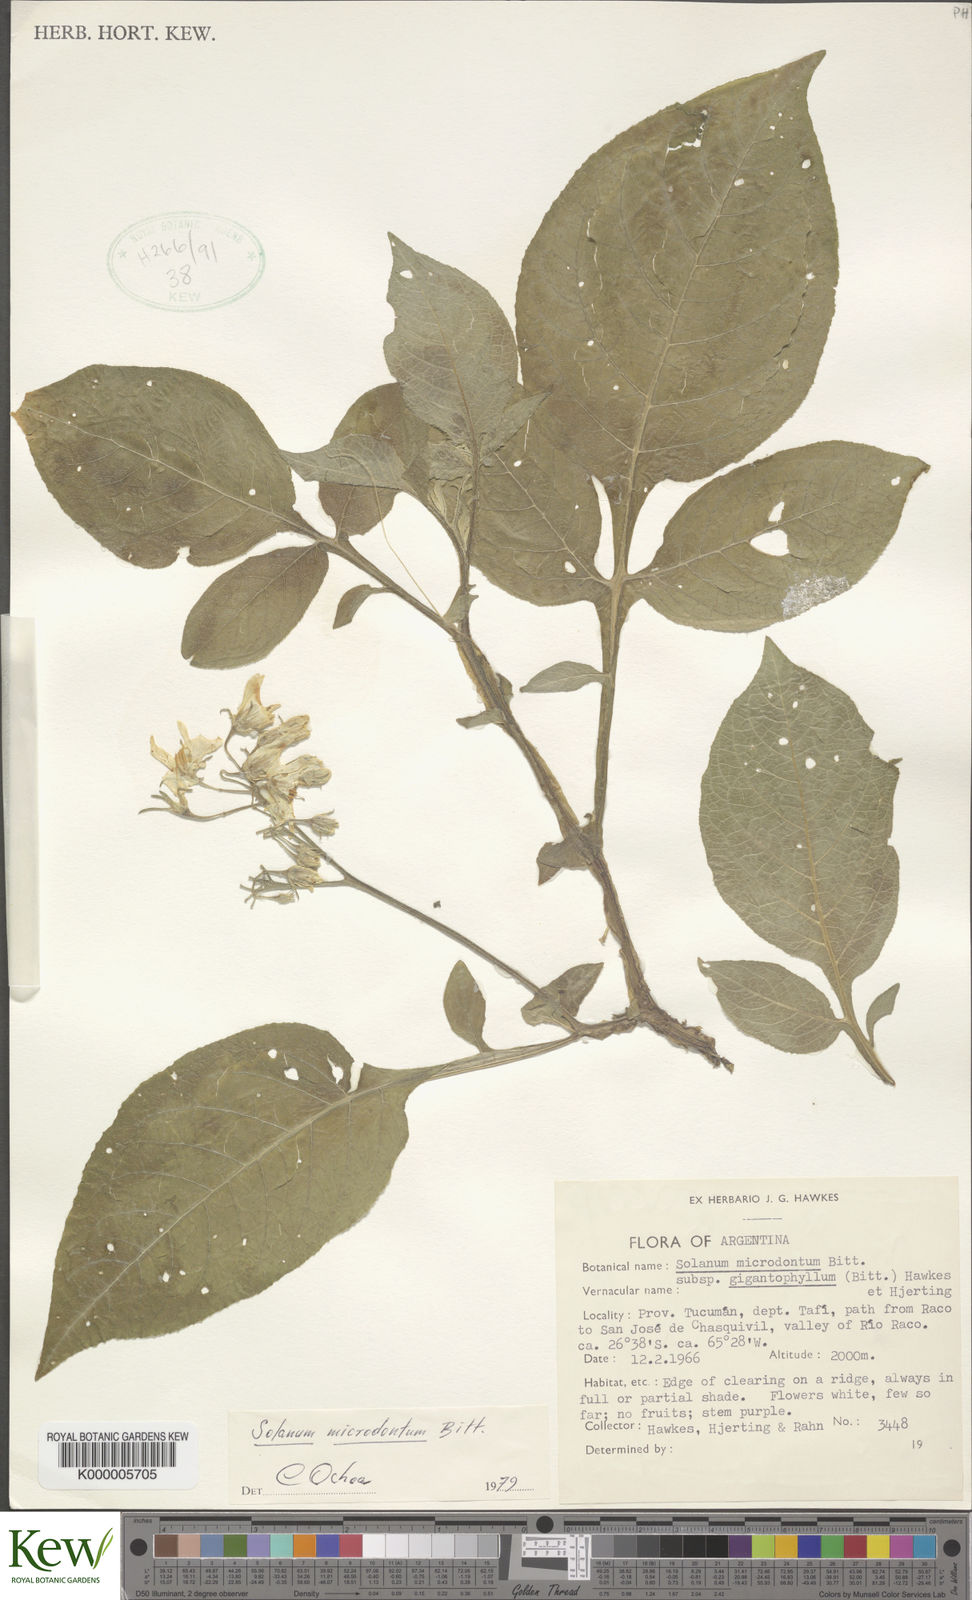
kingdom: Plantae
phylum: Tracheophyta
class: Magnoliopsida
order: Solanales
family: Solanaceae
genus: Solanum
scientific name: Solanum microdontum
